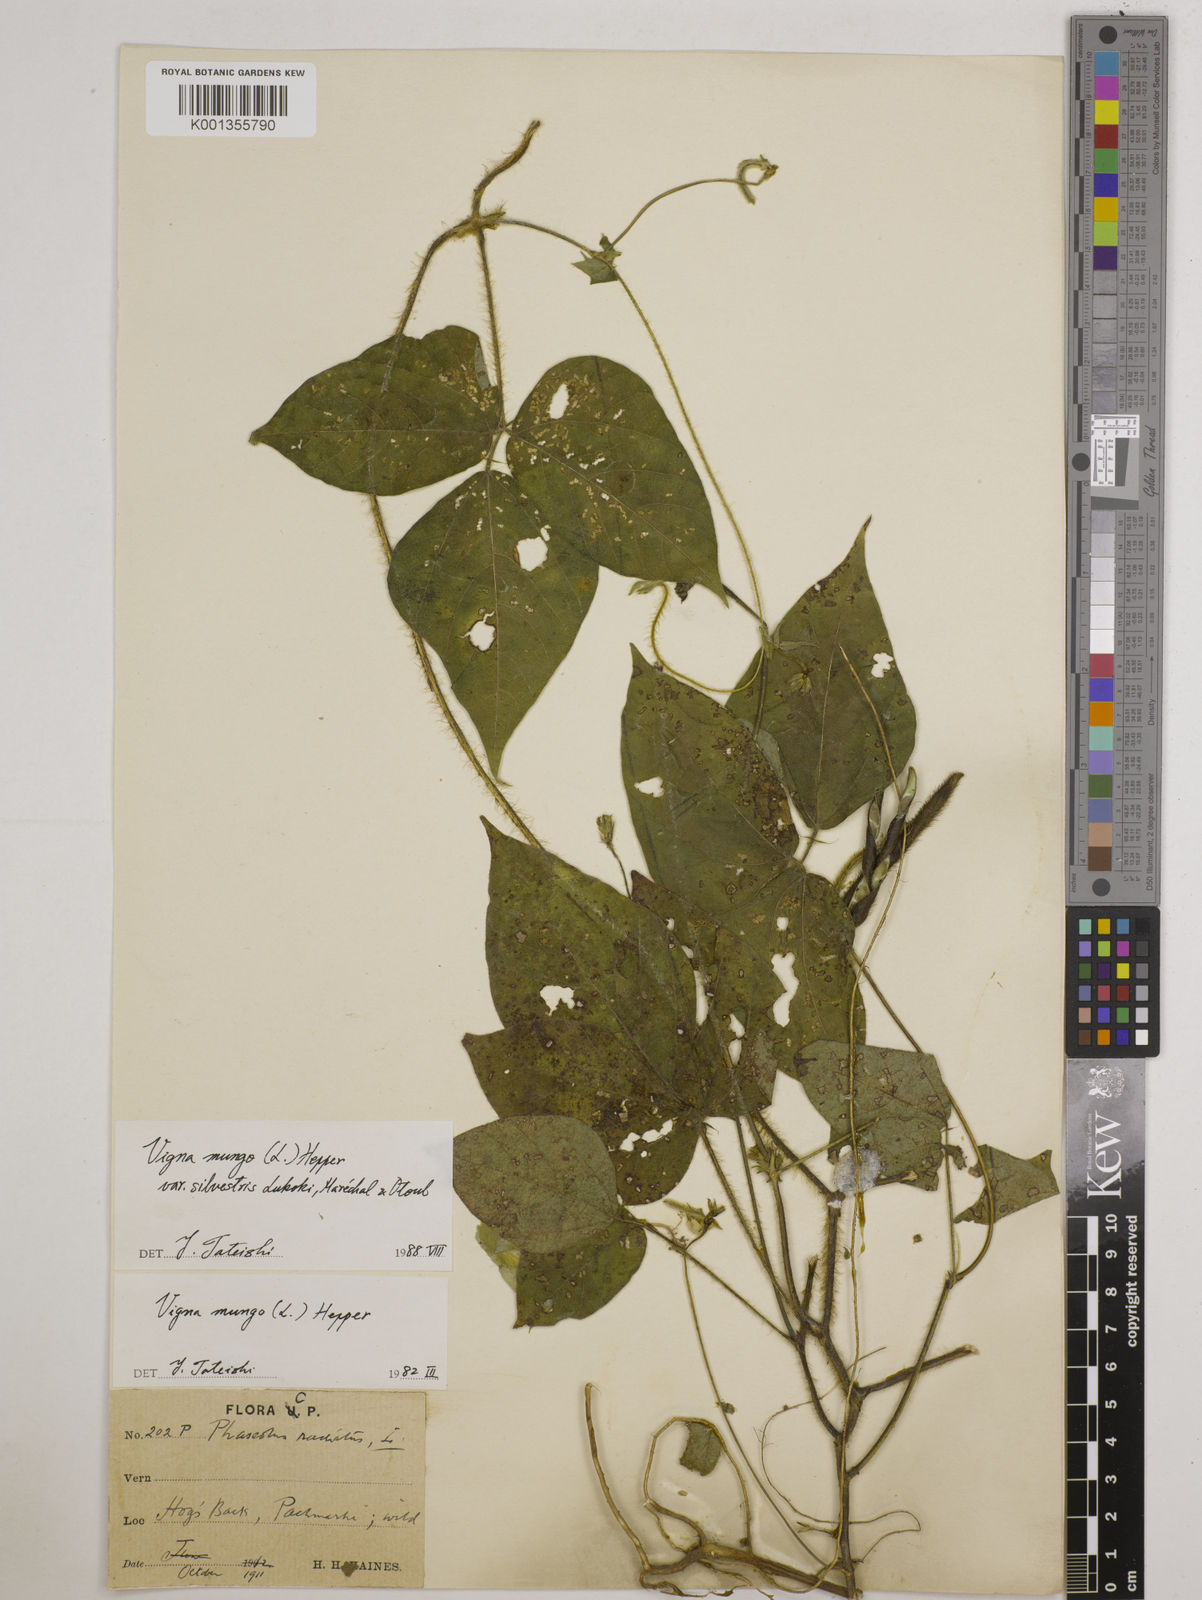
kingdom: Plantae
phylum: Tracheophyta
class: Magnoliopsida
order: Fabales
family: Fabaceae
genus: Vigna
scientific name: Vigna mungo
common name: Black gram
